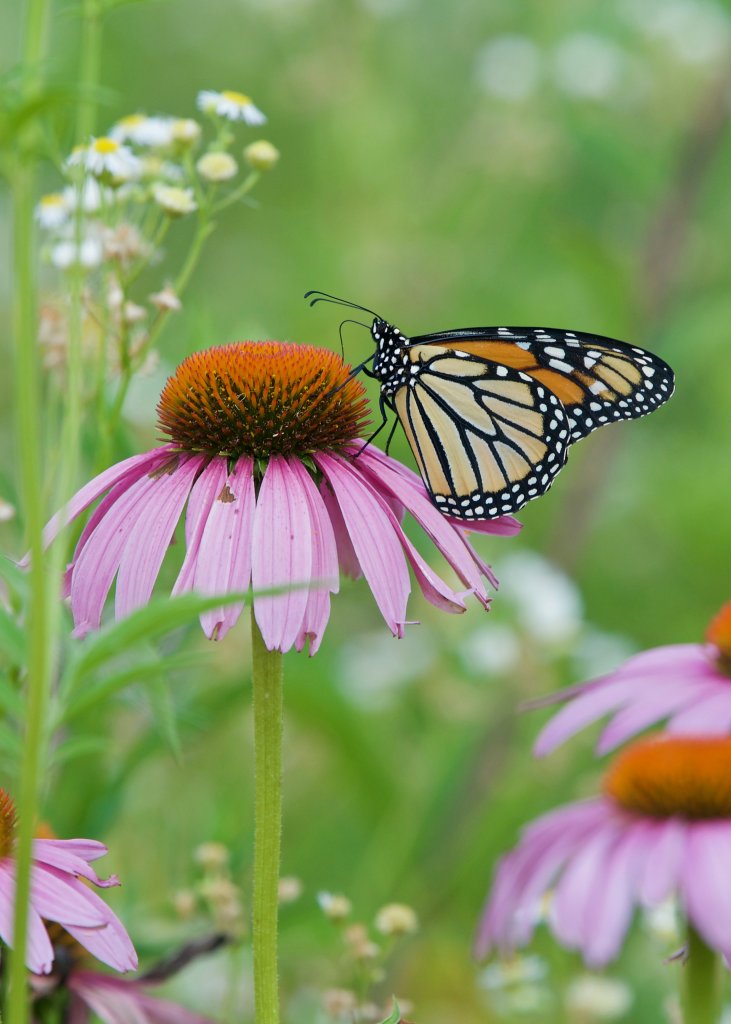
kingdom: Animalia
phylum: Arthropoda
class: Insecta
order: Lepidoptera
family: Nymphalidae
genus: Danaus
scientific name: Danaus plexippus
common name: Monarch
